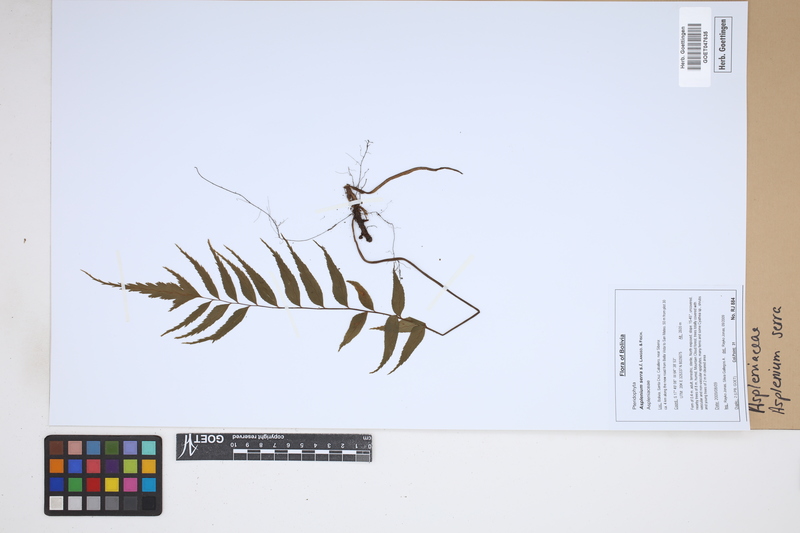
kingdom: Plantae
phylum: Tracheophyta
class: Polypodiopsida
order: Polypodiales
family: Aspleniaceae
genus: Asplenium
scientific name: Asplenium serra
